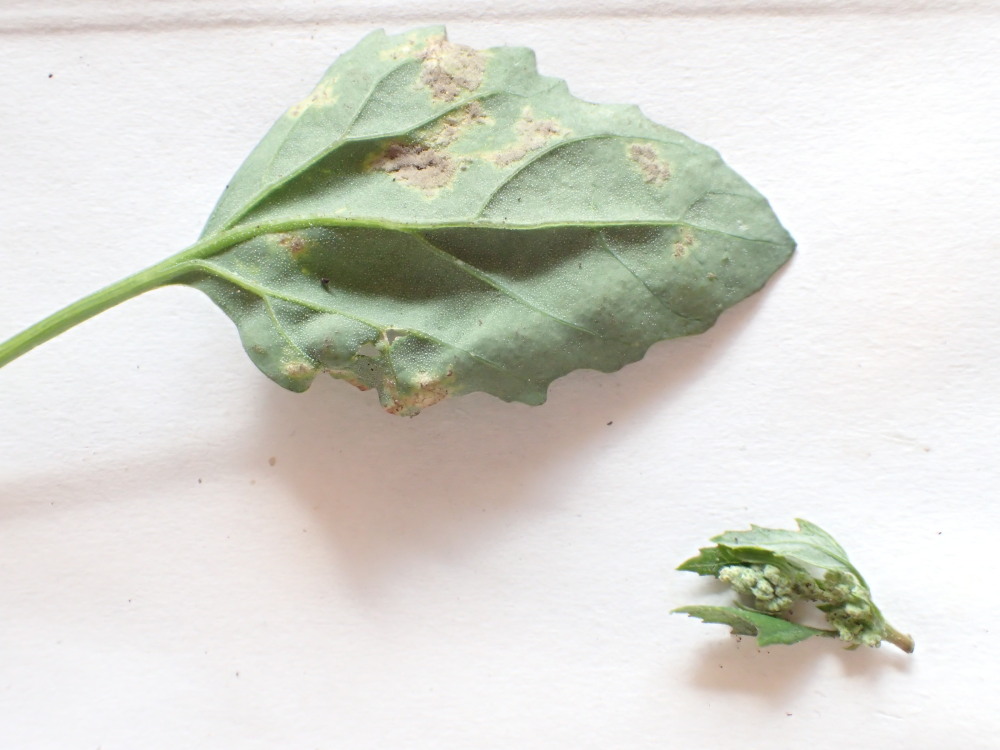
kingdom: Chromista
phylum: Oomycota
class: Peronosporea
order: Peronosporales
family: Peronosporaceae
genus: Peronospora
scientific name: Peronospora farinosa
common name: Beet downy mildew
